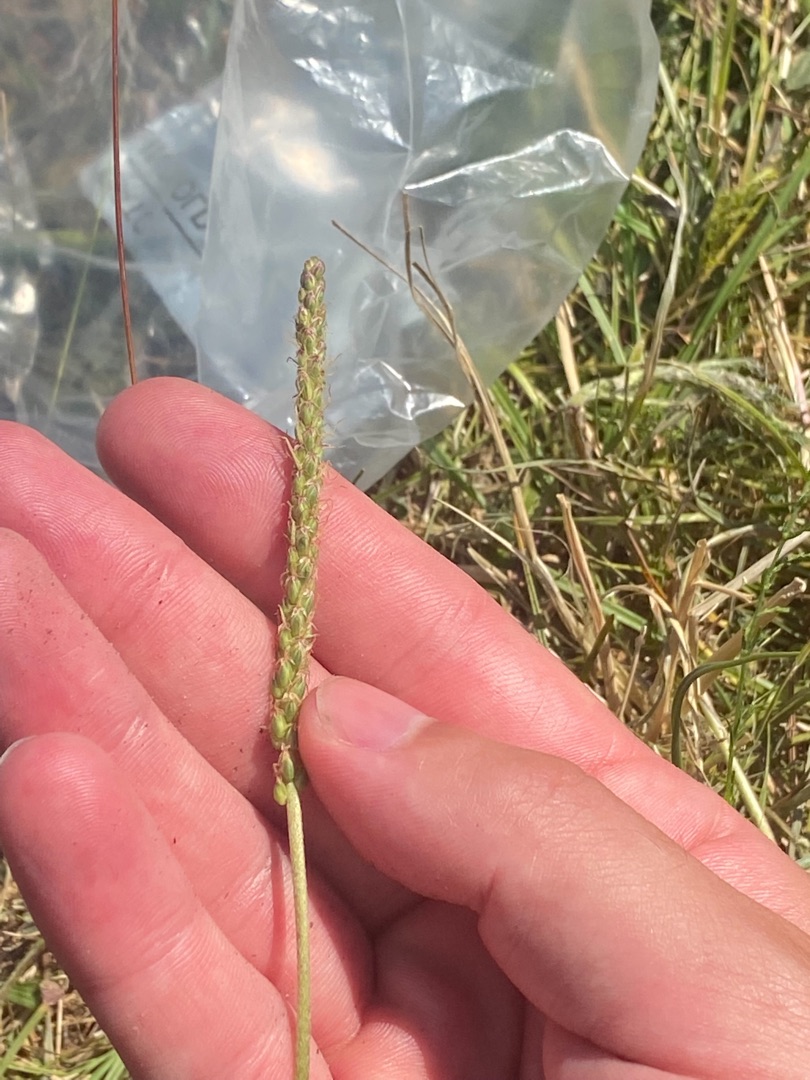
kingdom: Plantae
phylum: Tracheophyta
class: Magnoliopsida
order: Lamiales
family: Plantaginaceae
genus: Plantago
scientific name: Plantago maritima
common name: Strand-vejbred
